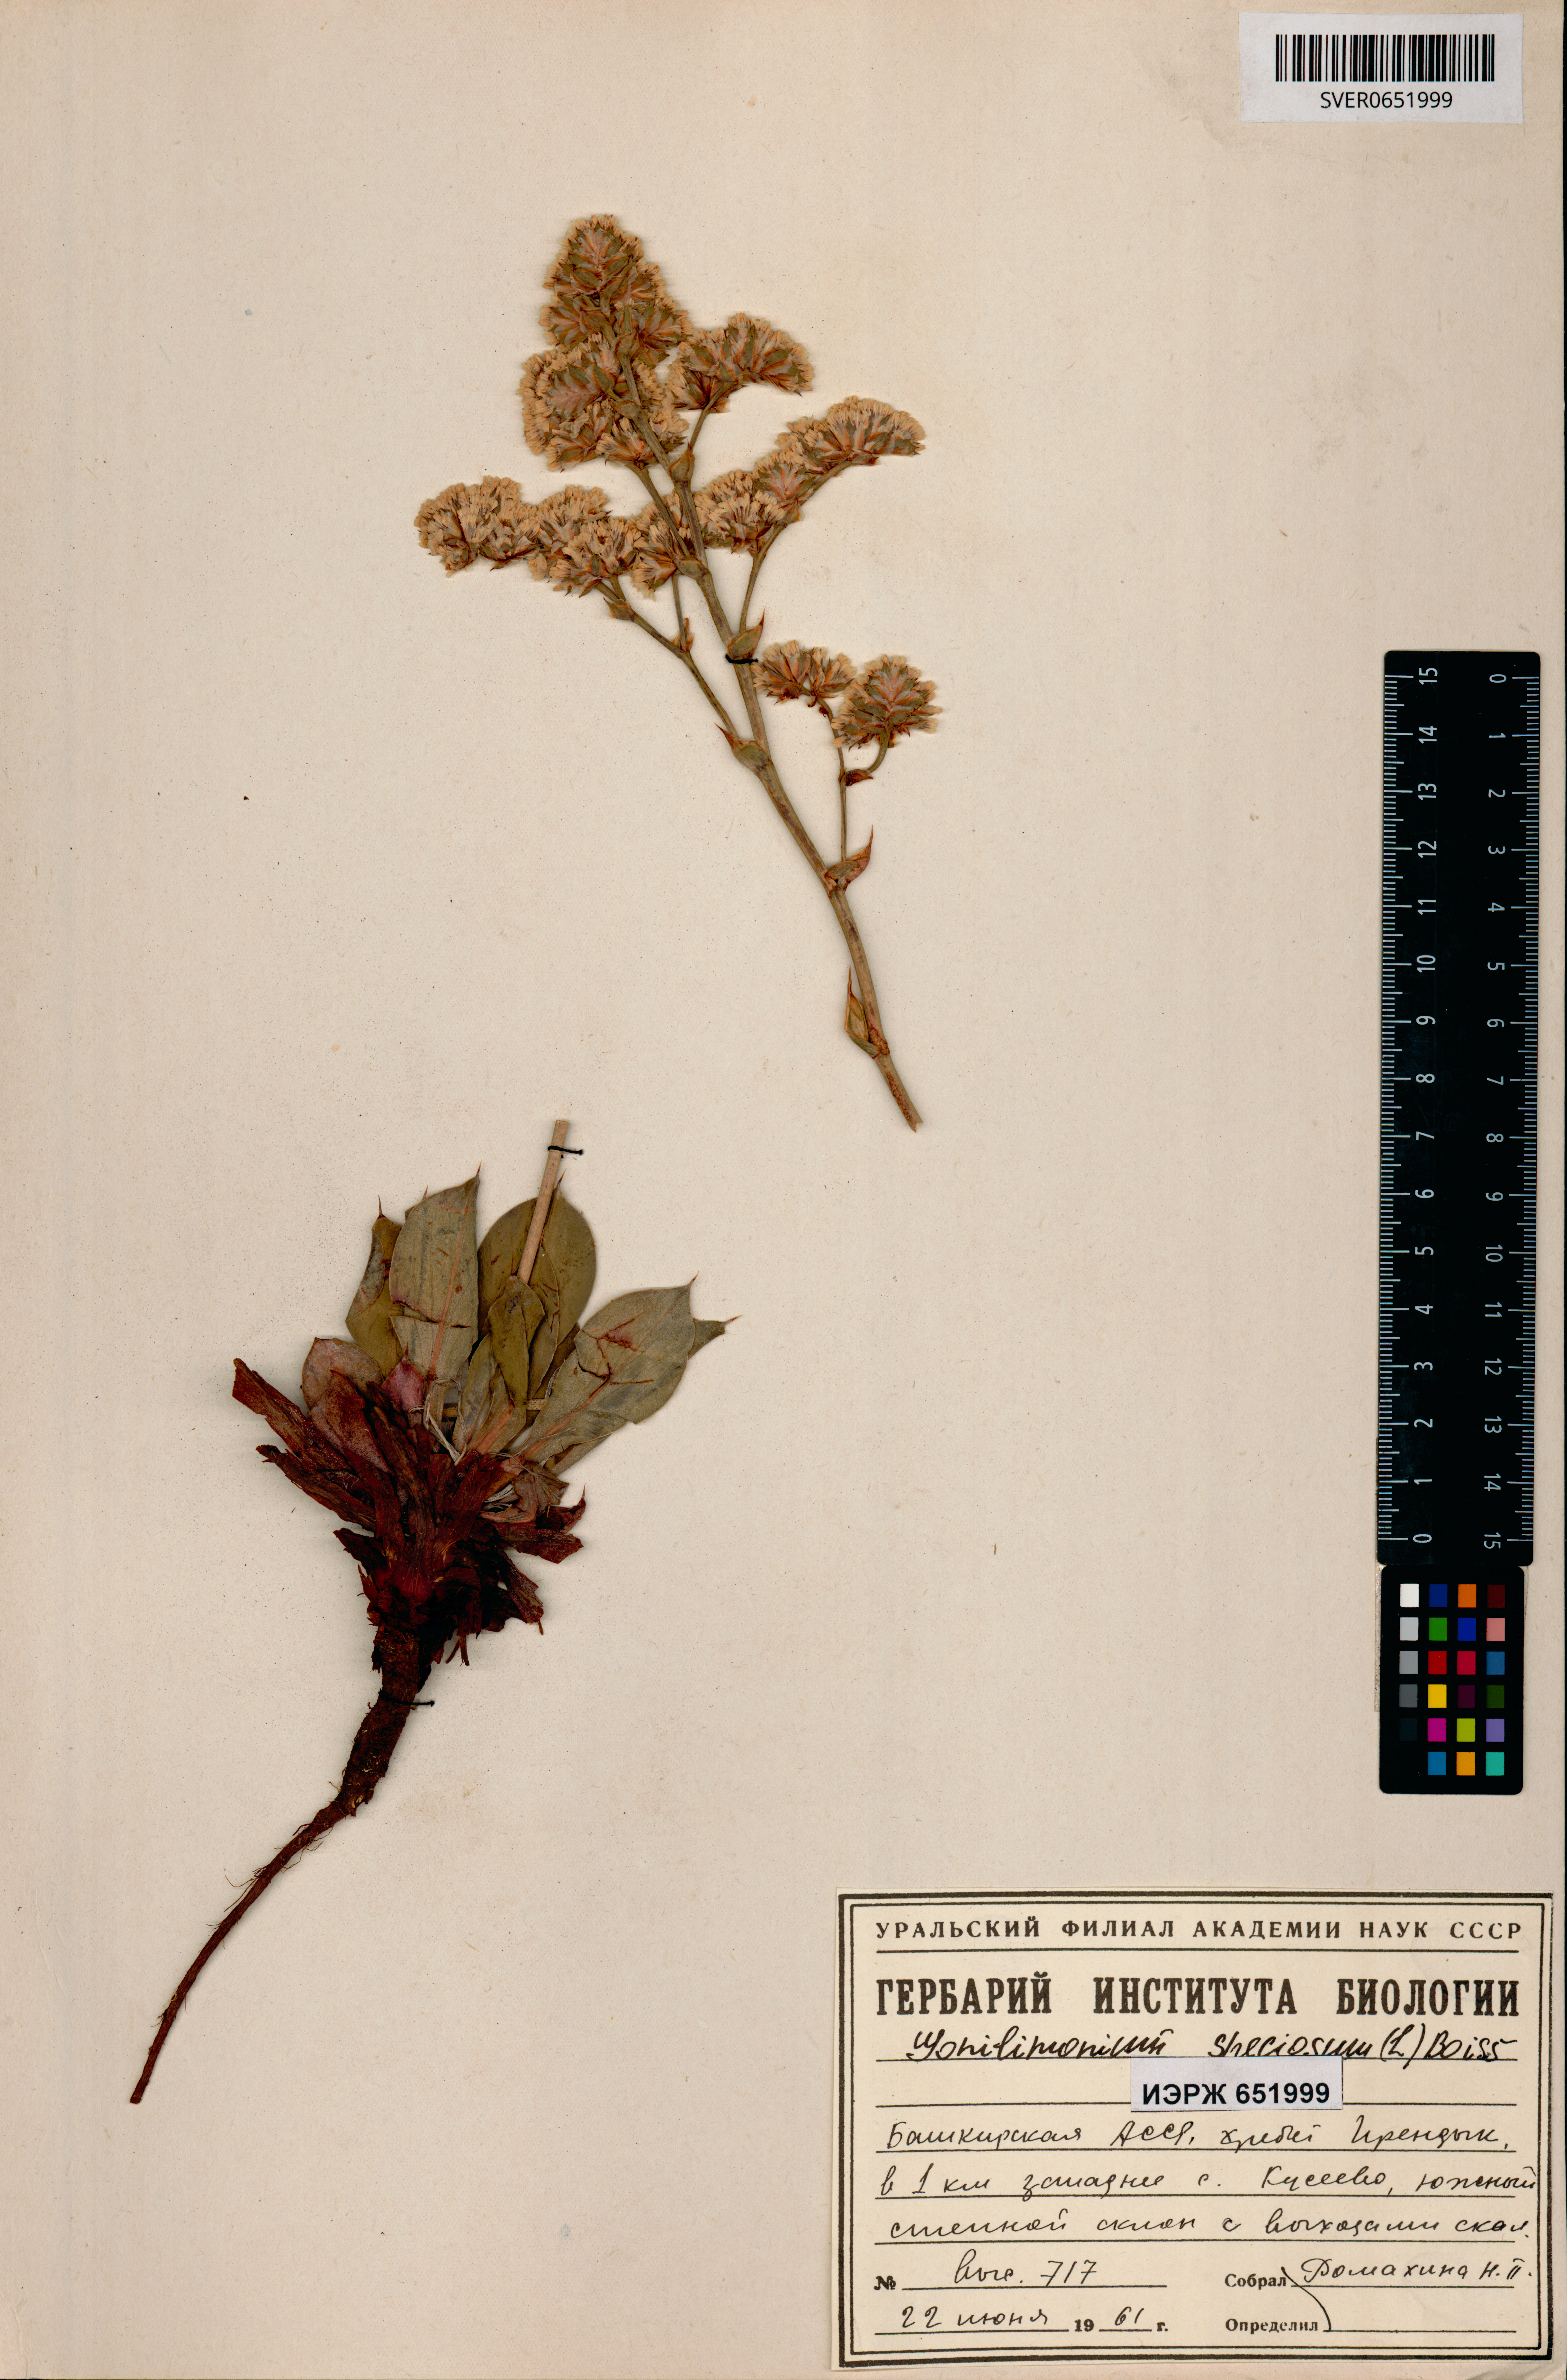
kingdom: Plantae
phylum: Tracheophyta
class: Magnoliopsida
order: Caryophyllales
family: Plumbaginaceae
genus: Goniolimon
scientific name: Goniolimon speciosum
